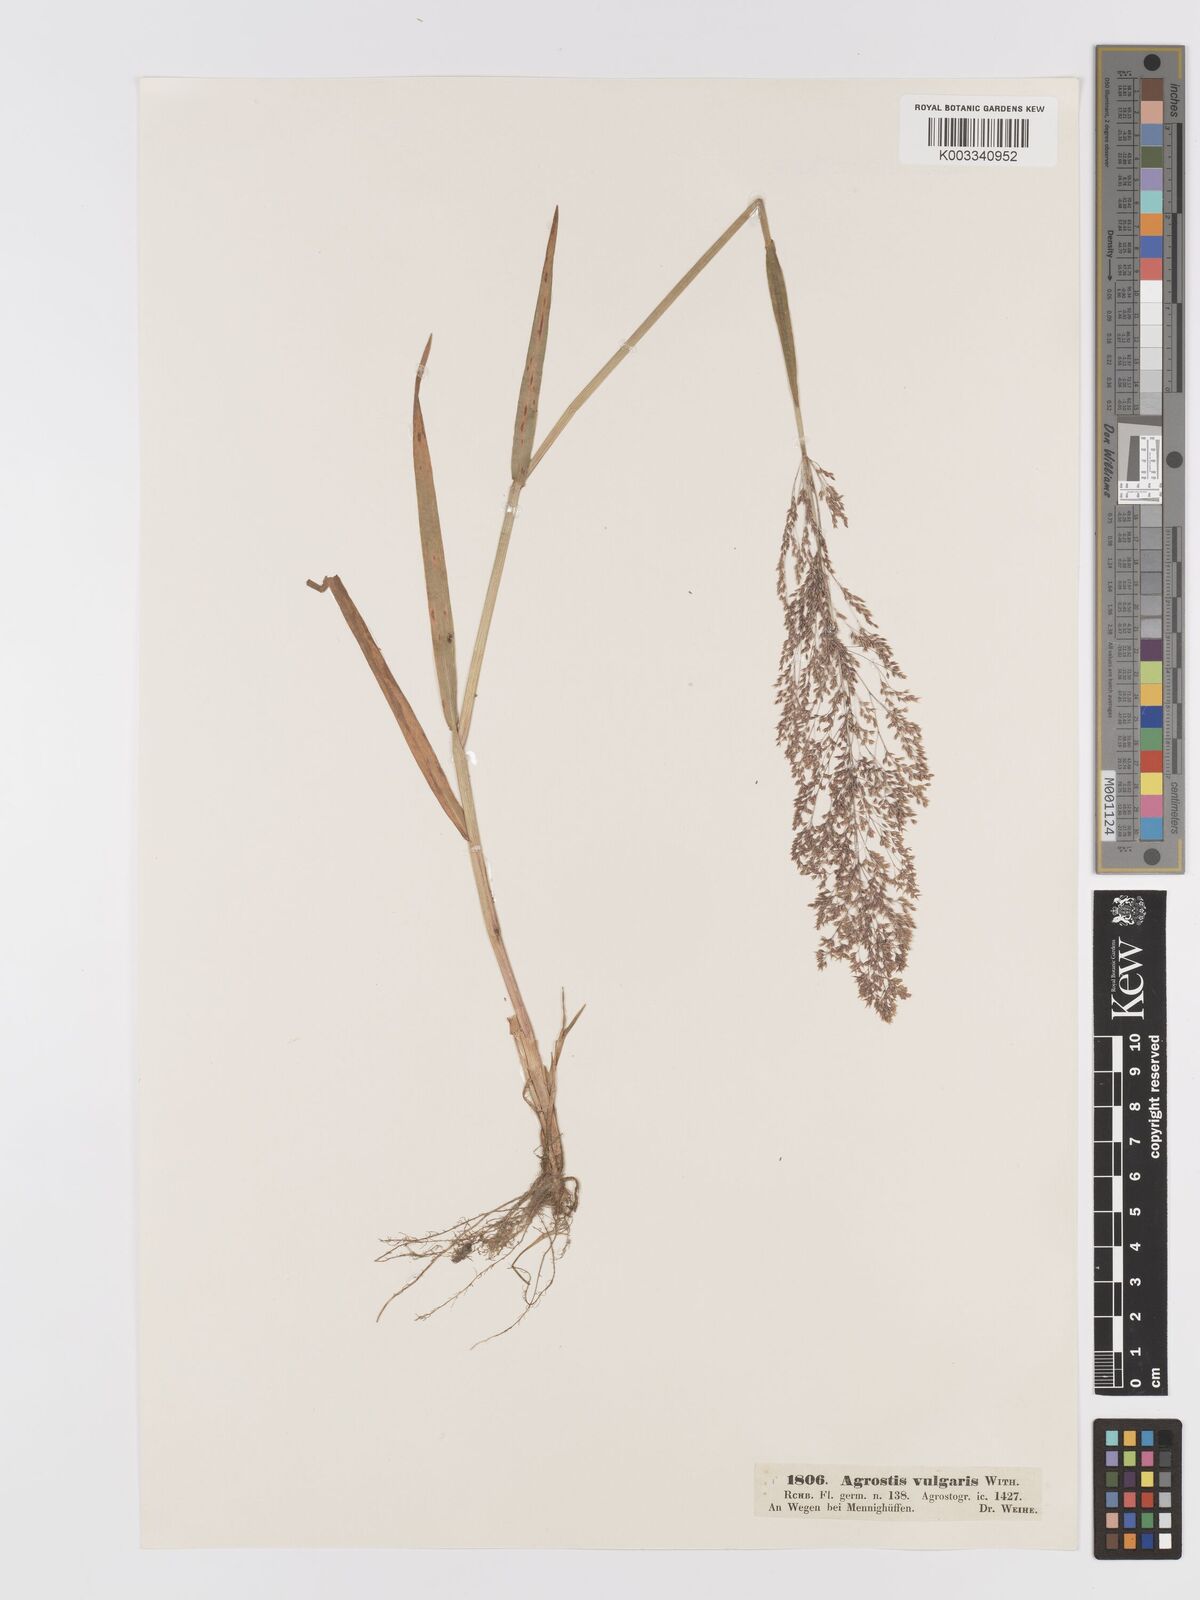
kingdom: Plantae
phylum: Tracheophyta
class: Liliopsida
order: Poales
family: Poaceae
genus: Agrostis
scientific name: Agrostis capillaris
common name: Colonial bentgrass
